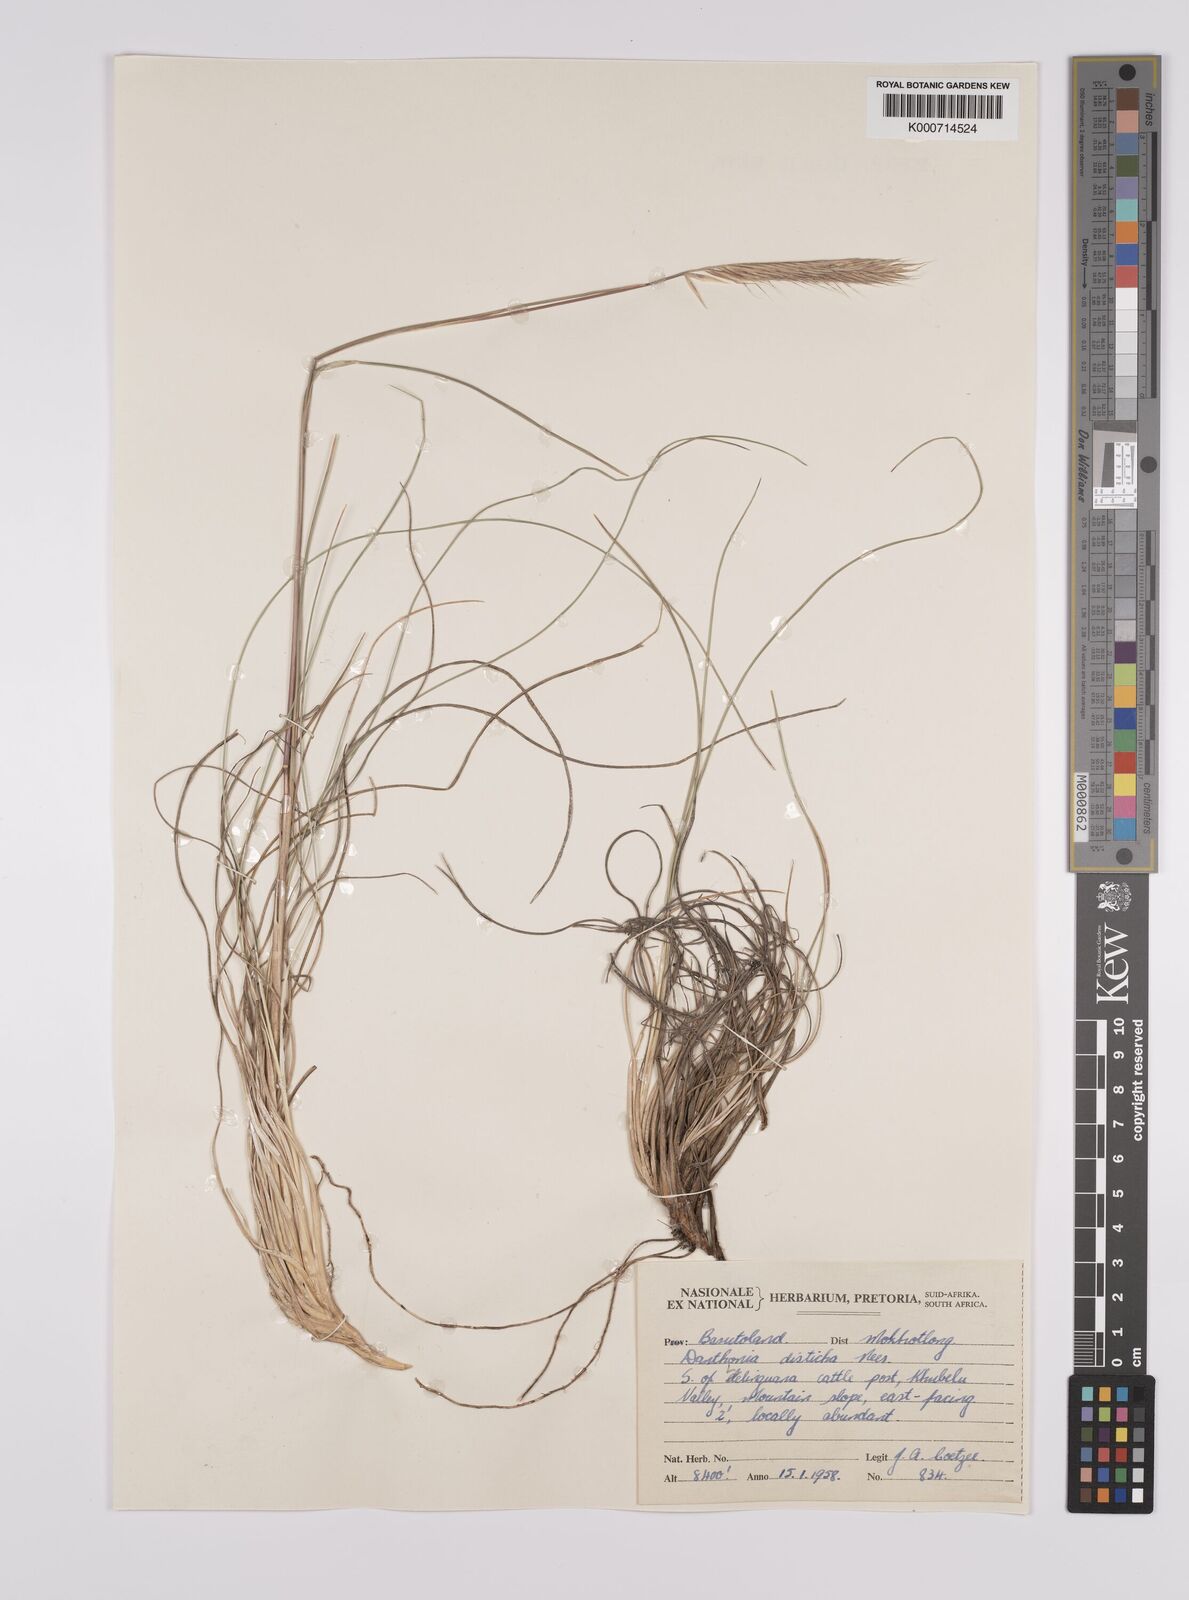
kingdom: Plantae
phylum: Tracheophyta
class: Liliopsida
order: Poales
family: Poaceae
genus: Tenaxia
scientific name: Tenaxia disticha
